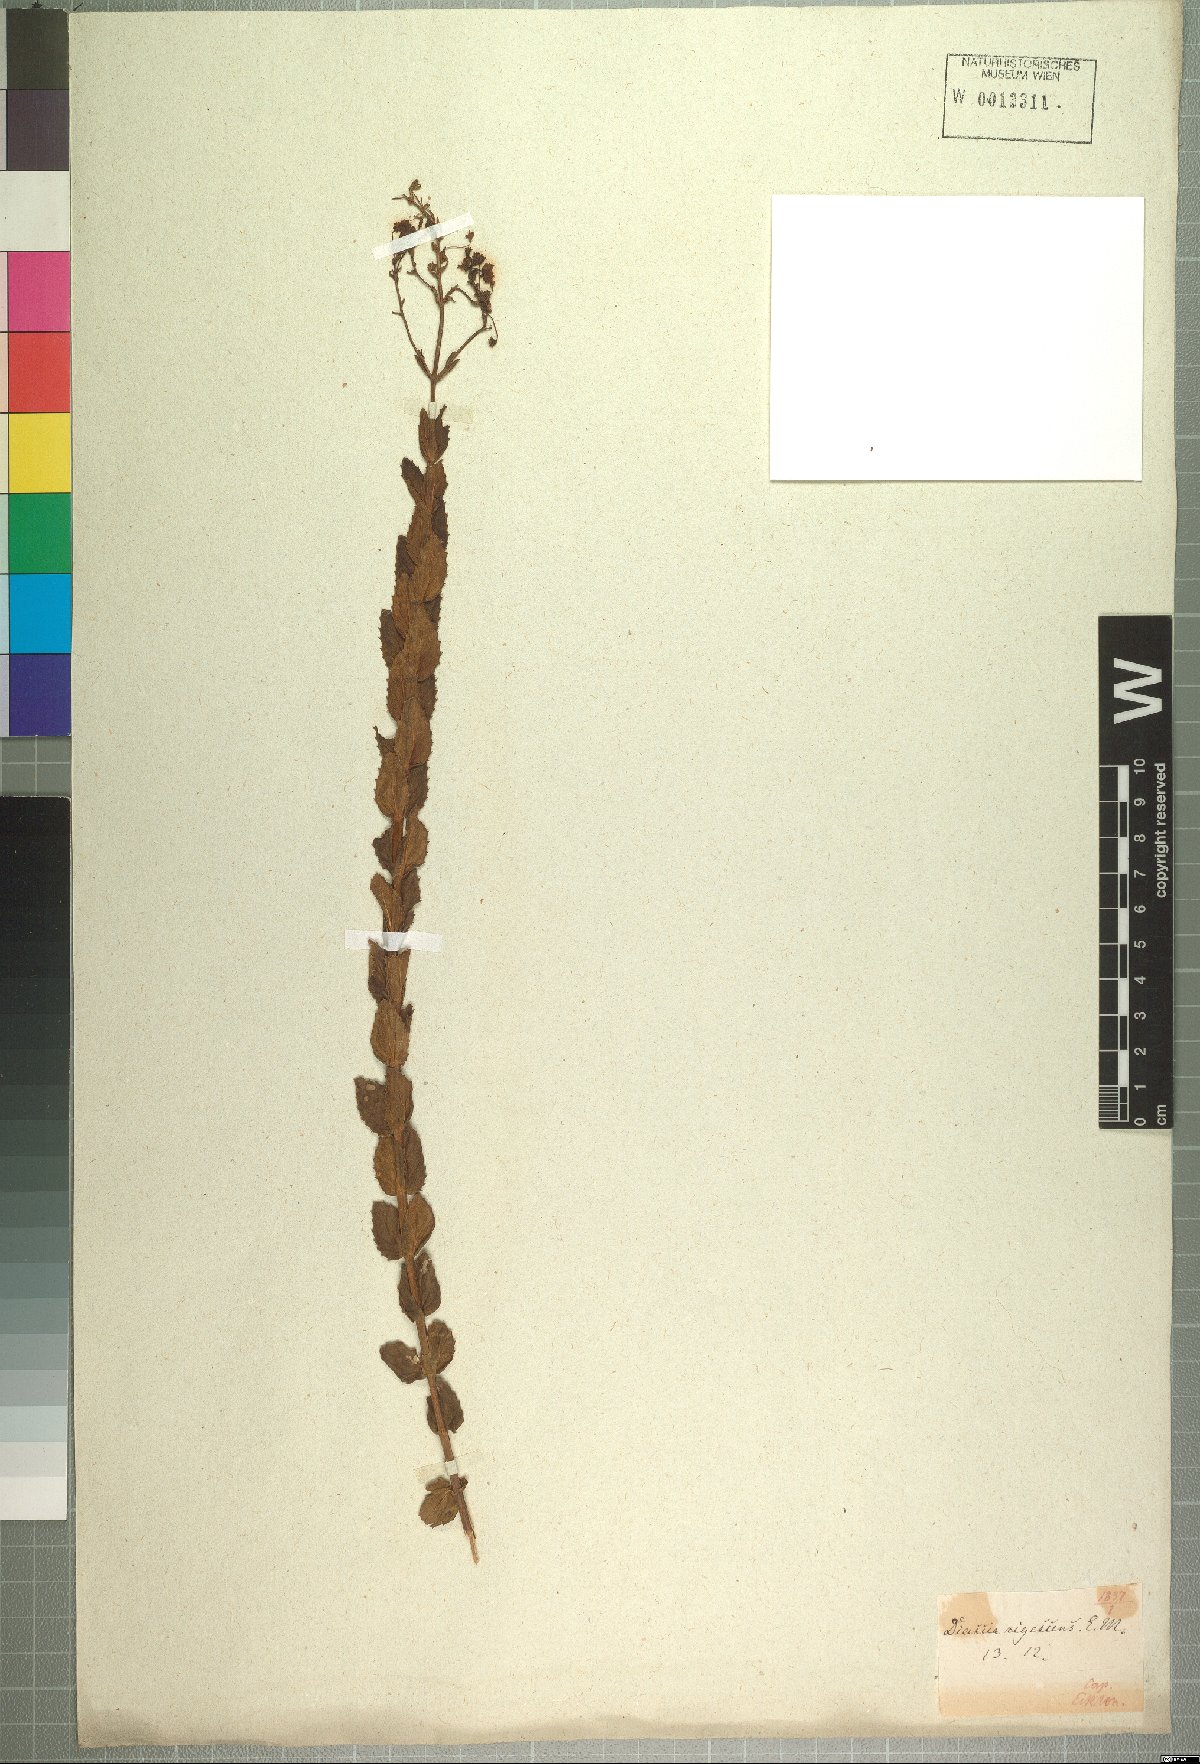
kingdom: Plantae
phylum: Tracheophyta
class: Magnoliopsida
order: Lamiales
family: Scrophulariaceae
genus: Diascia
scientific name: Diascia rigescens
